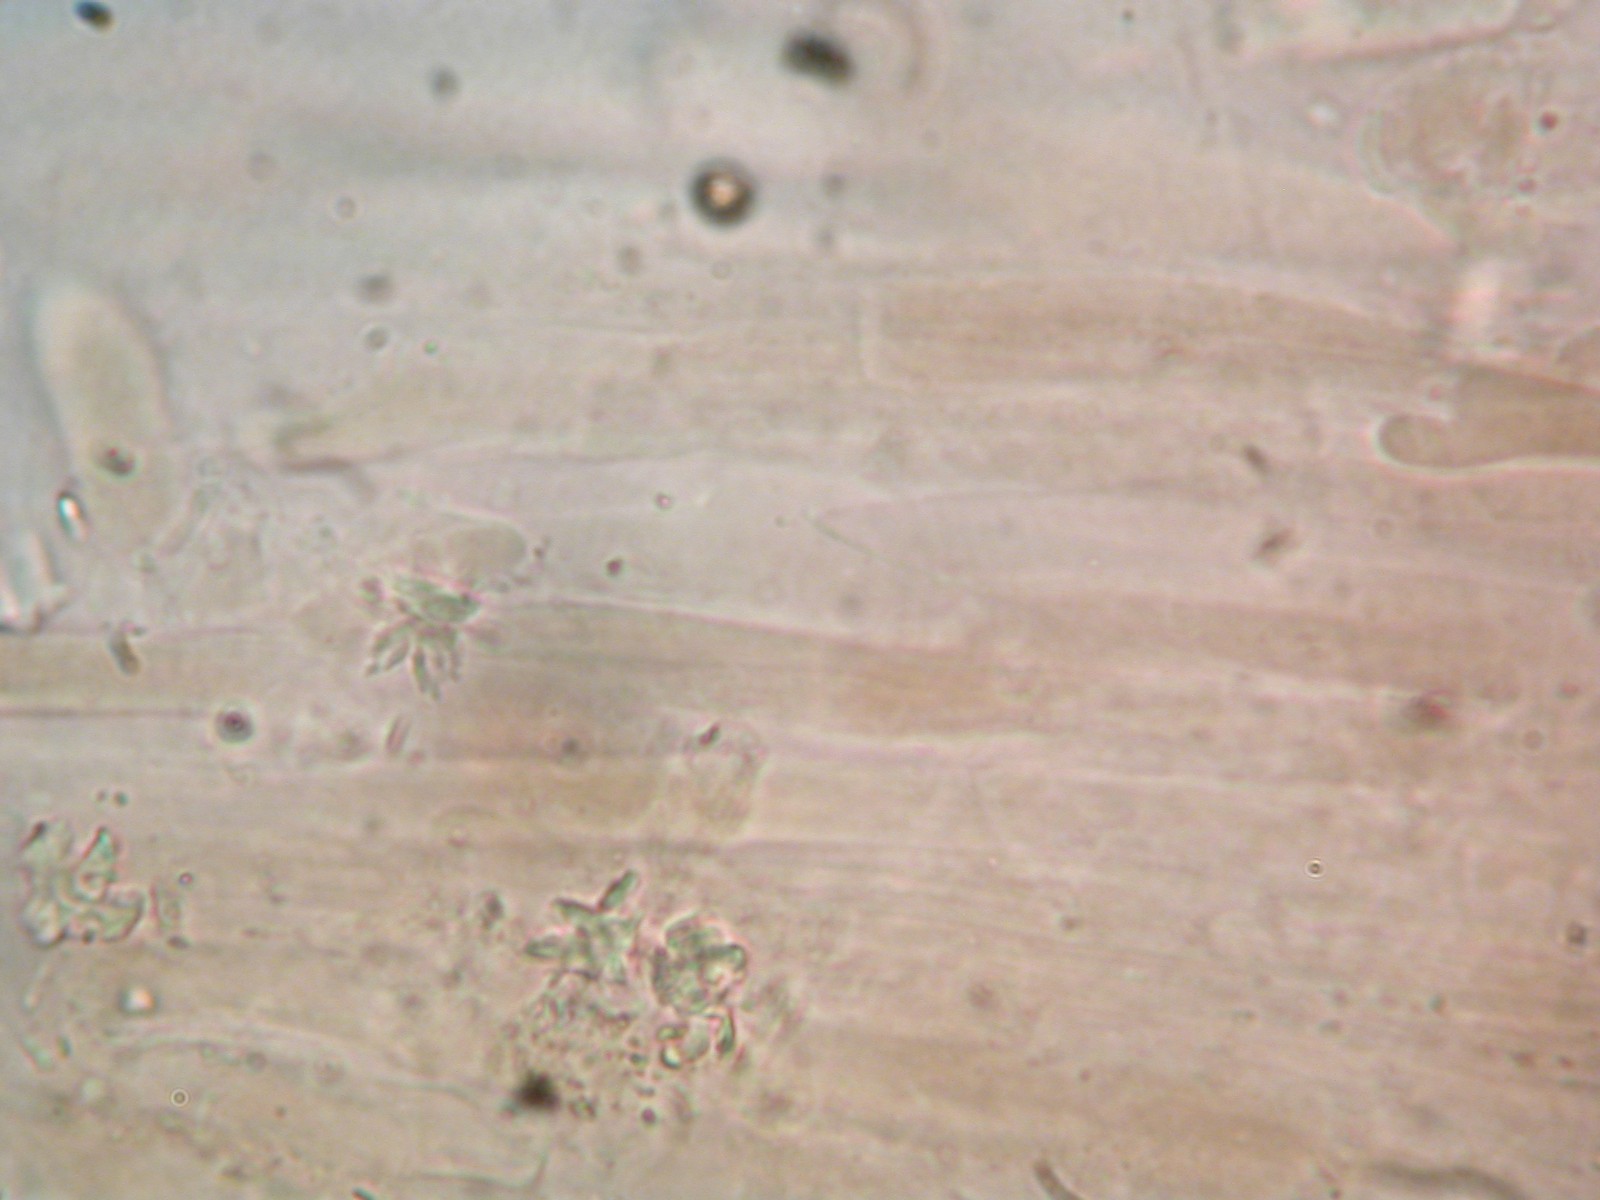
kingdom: Fungi
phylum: Basidiomycota
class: Agaricomycetes
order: Agaricales
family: Entolomataceae
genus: Entoloma
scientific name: Entoloma
